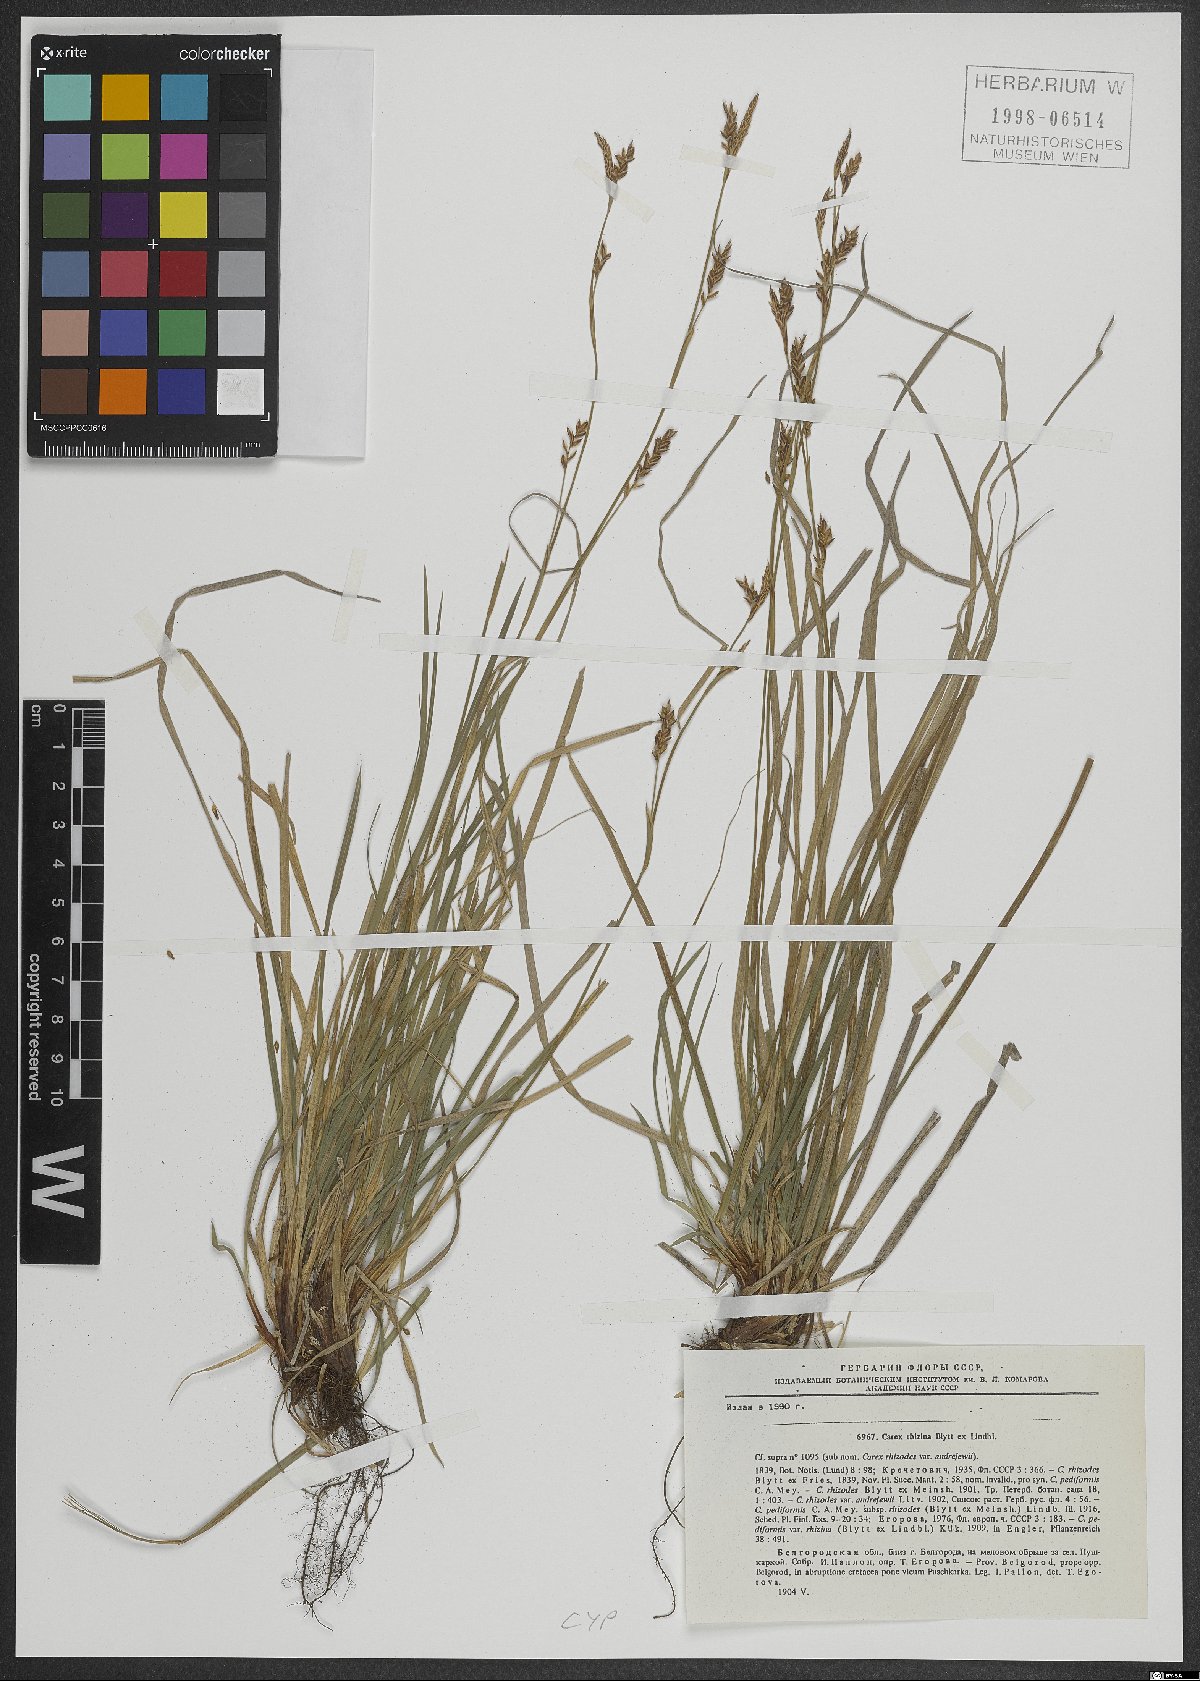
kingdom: Plantae
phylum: Tracheophyta
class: Liliopsida
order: Poales
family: Cyperaceae
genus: Carex
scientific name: Carex rhizina
